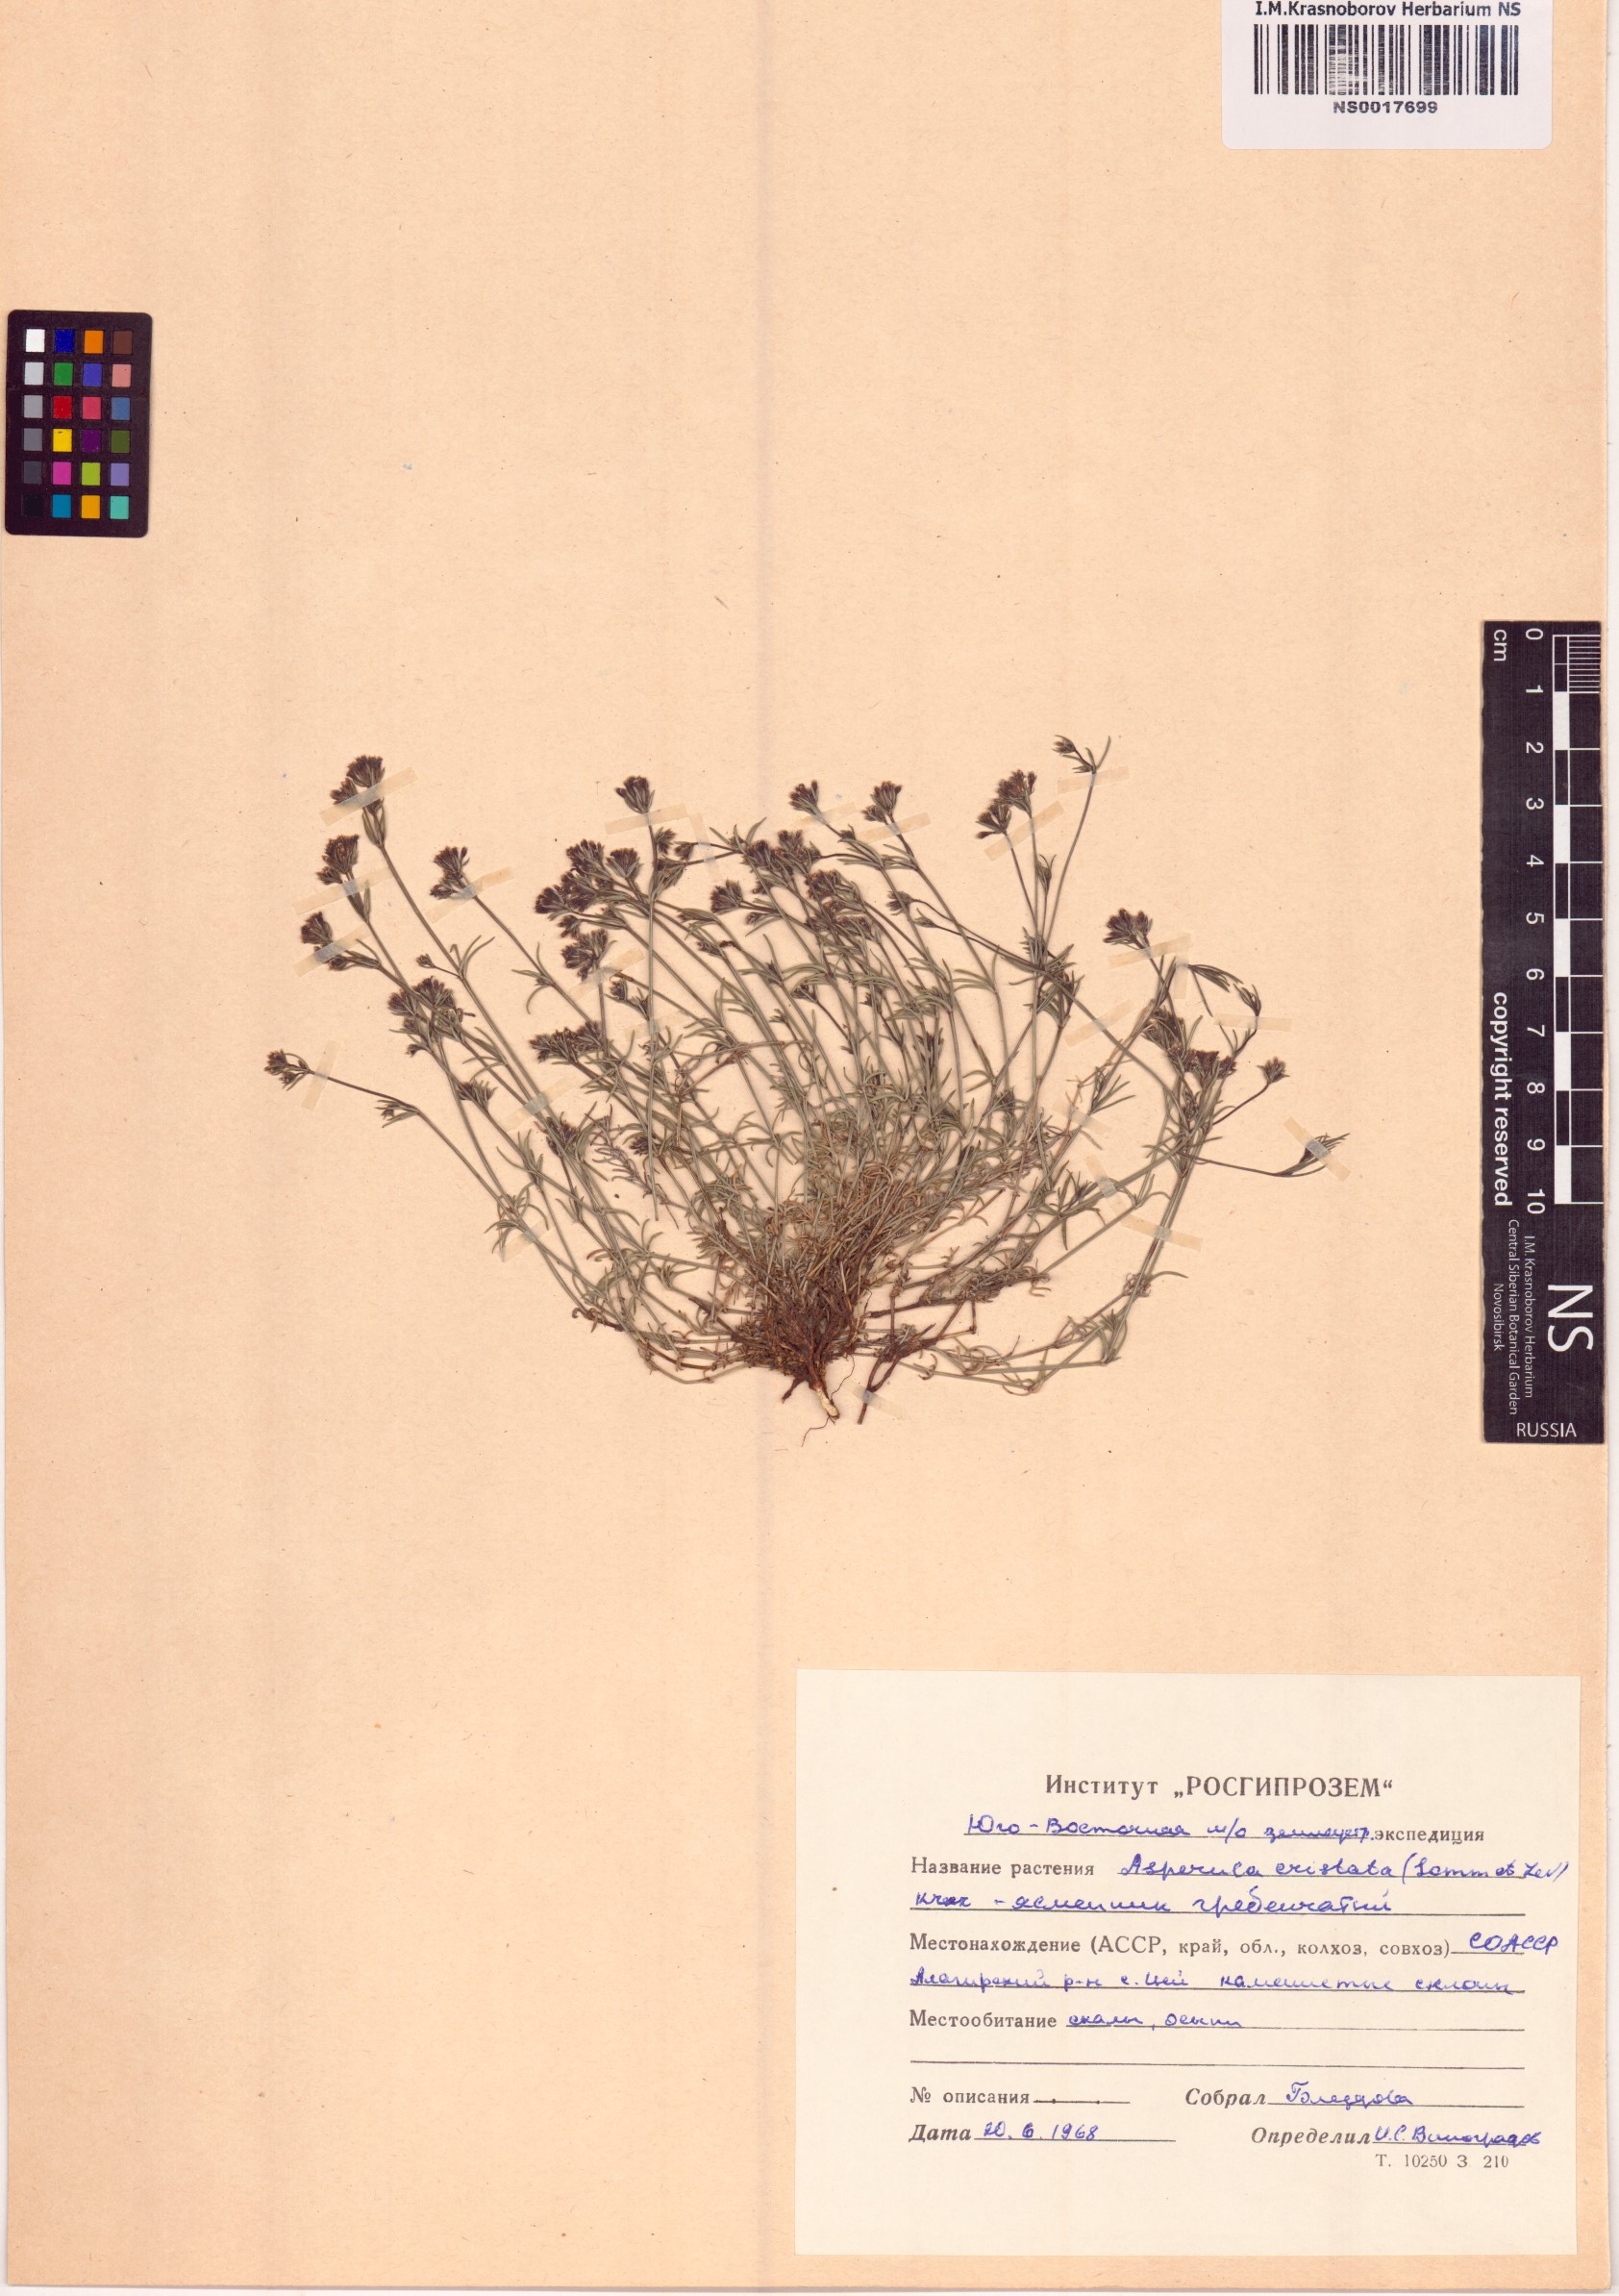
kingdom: Plantae
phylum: Tracheophyta
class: Magnoliopsida
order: Gentianales
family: Rubiaceae
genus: Cynanchica
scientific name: Cynanchica cristata
